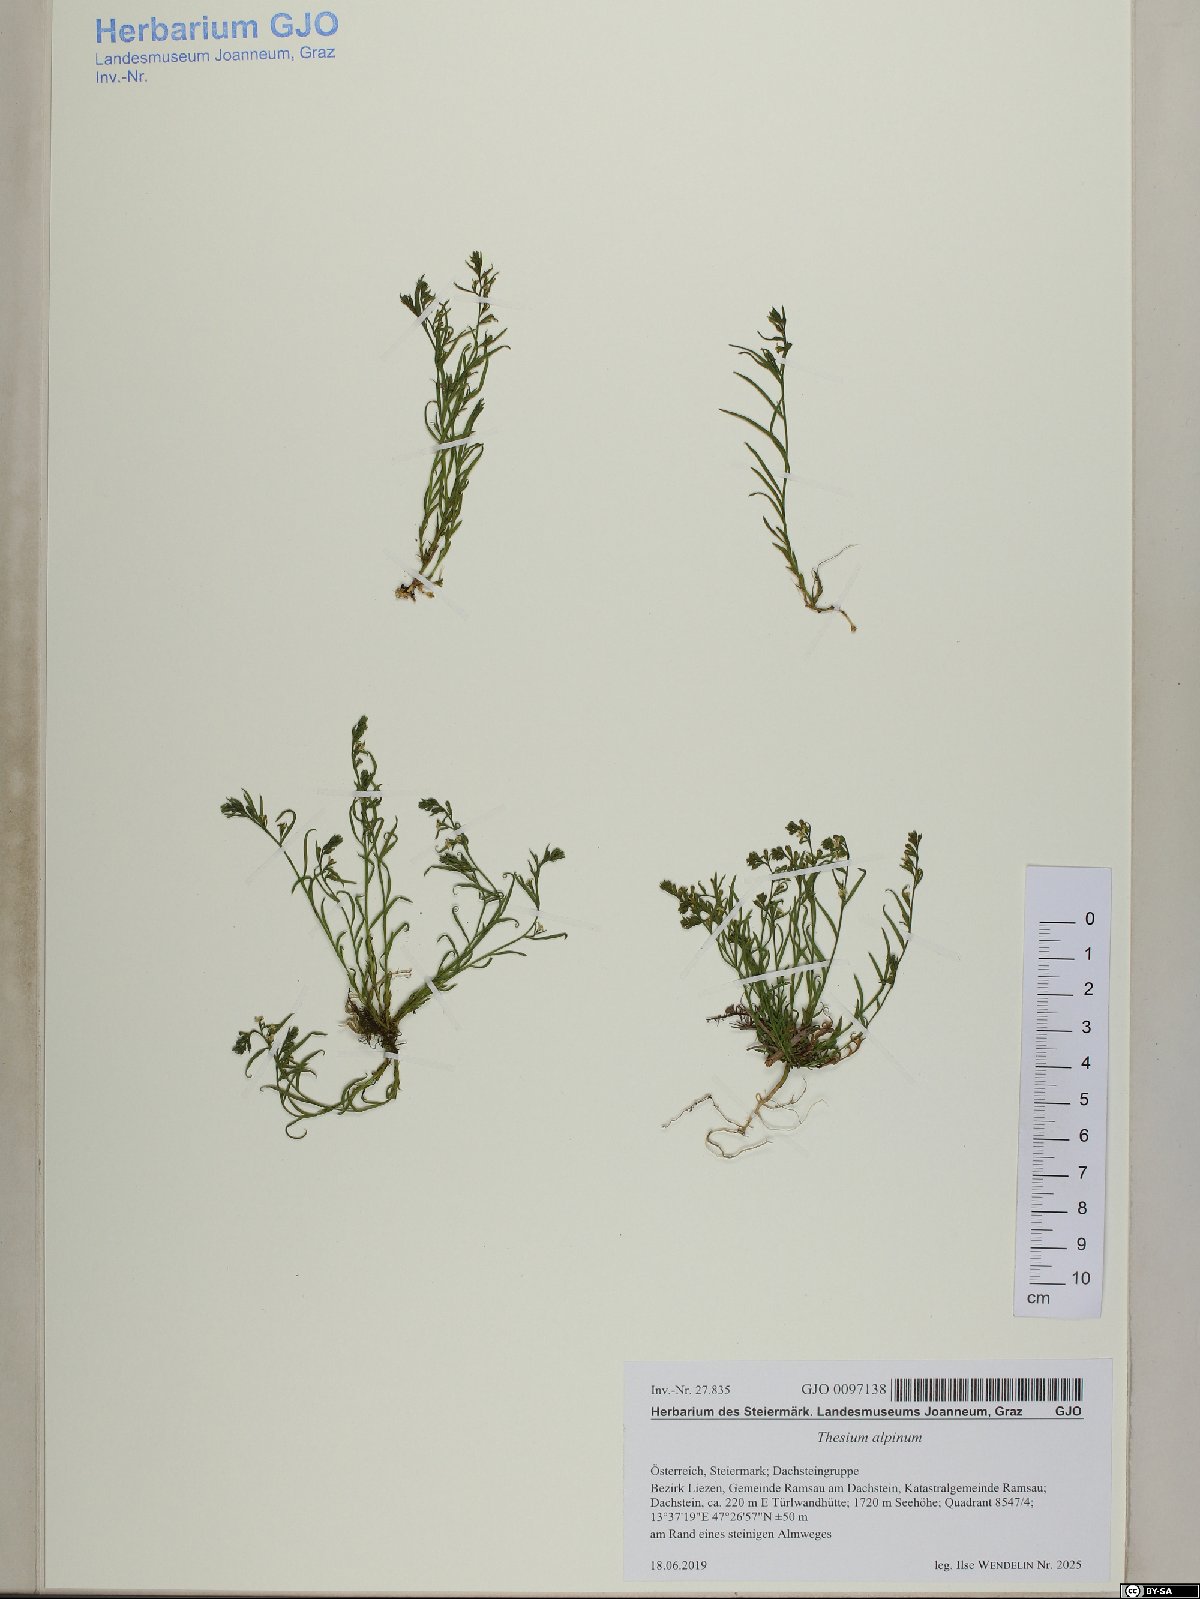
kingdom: Plantae
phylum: Tracheophyta
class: Magnoliopsida
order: Santalales
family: Thesiaceae
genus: Thesium
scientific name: Thesium alpinum
